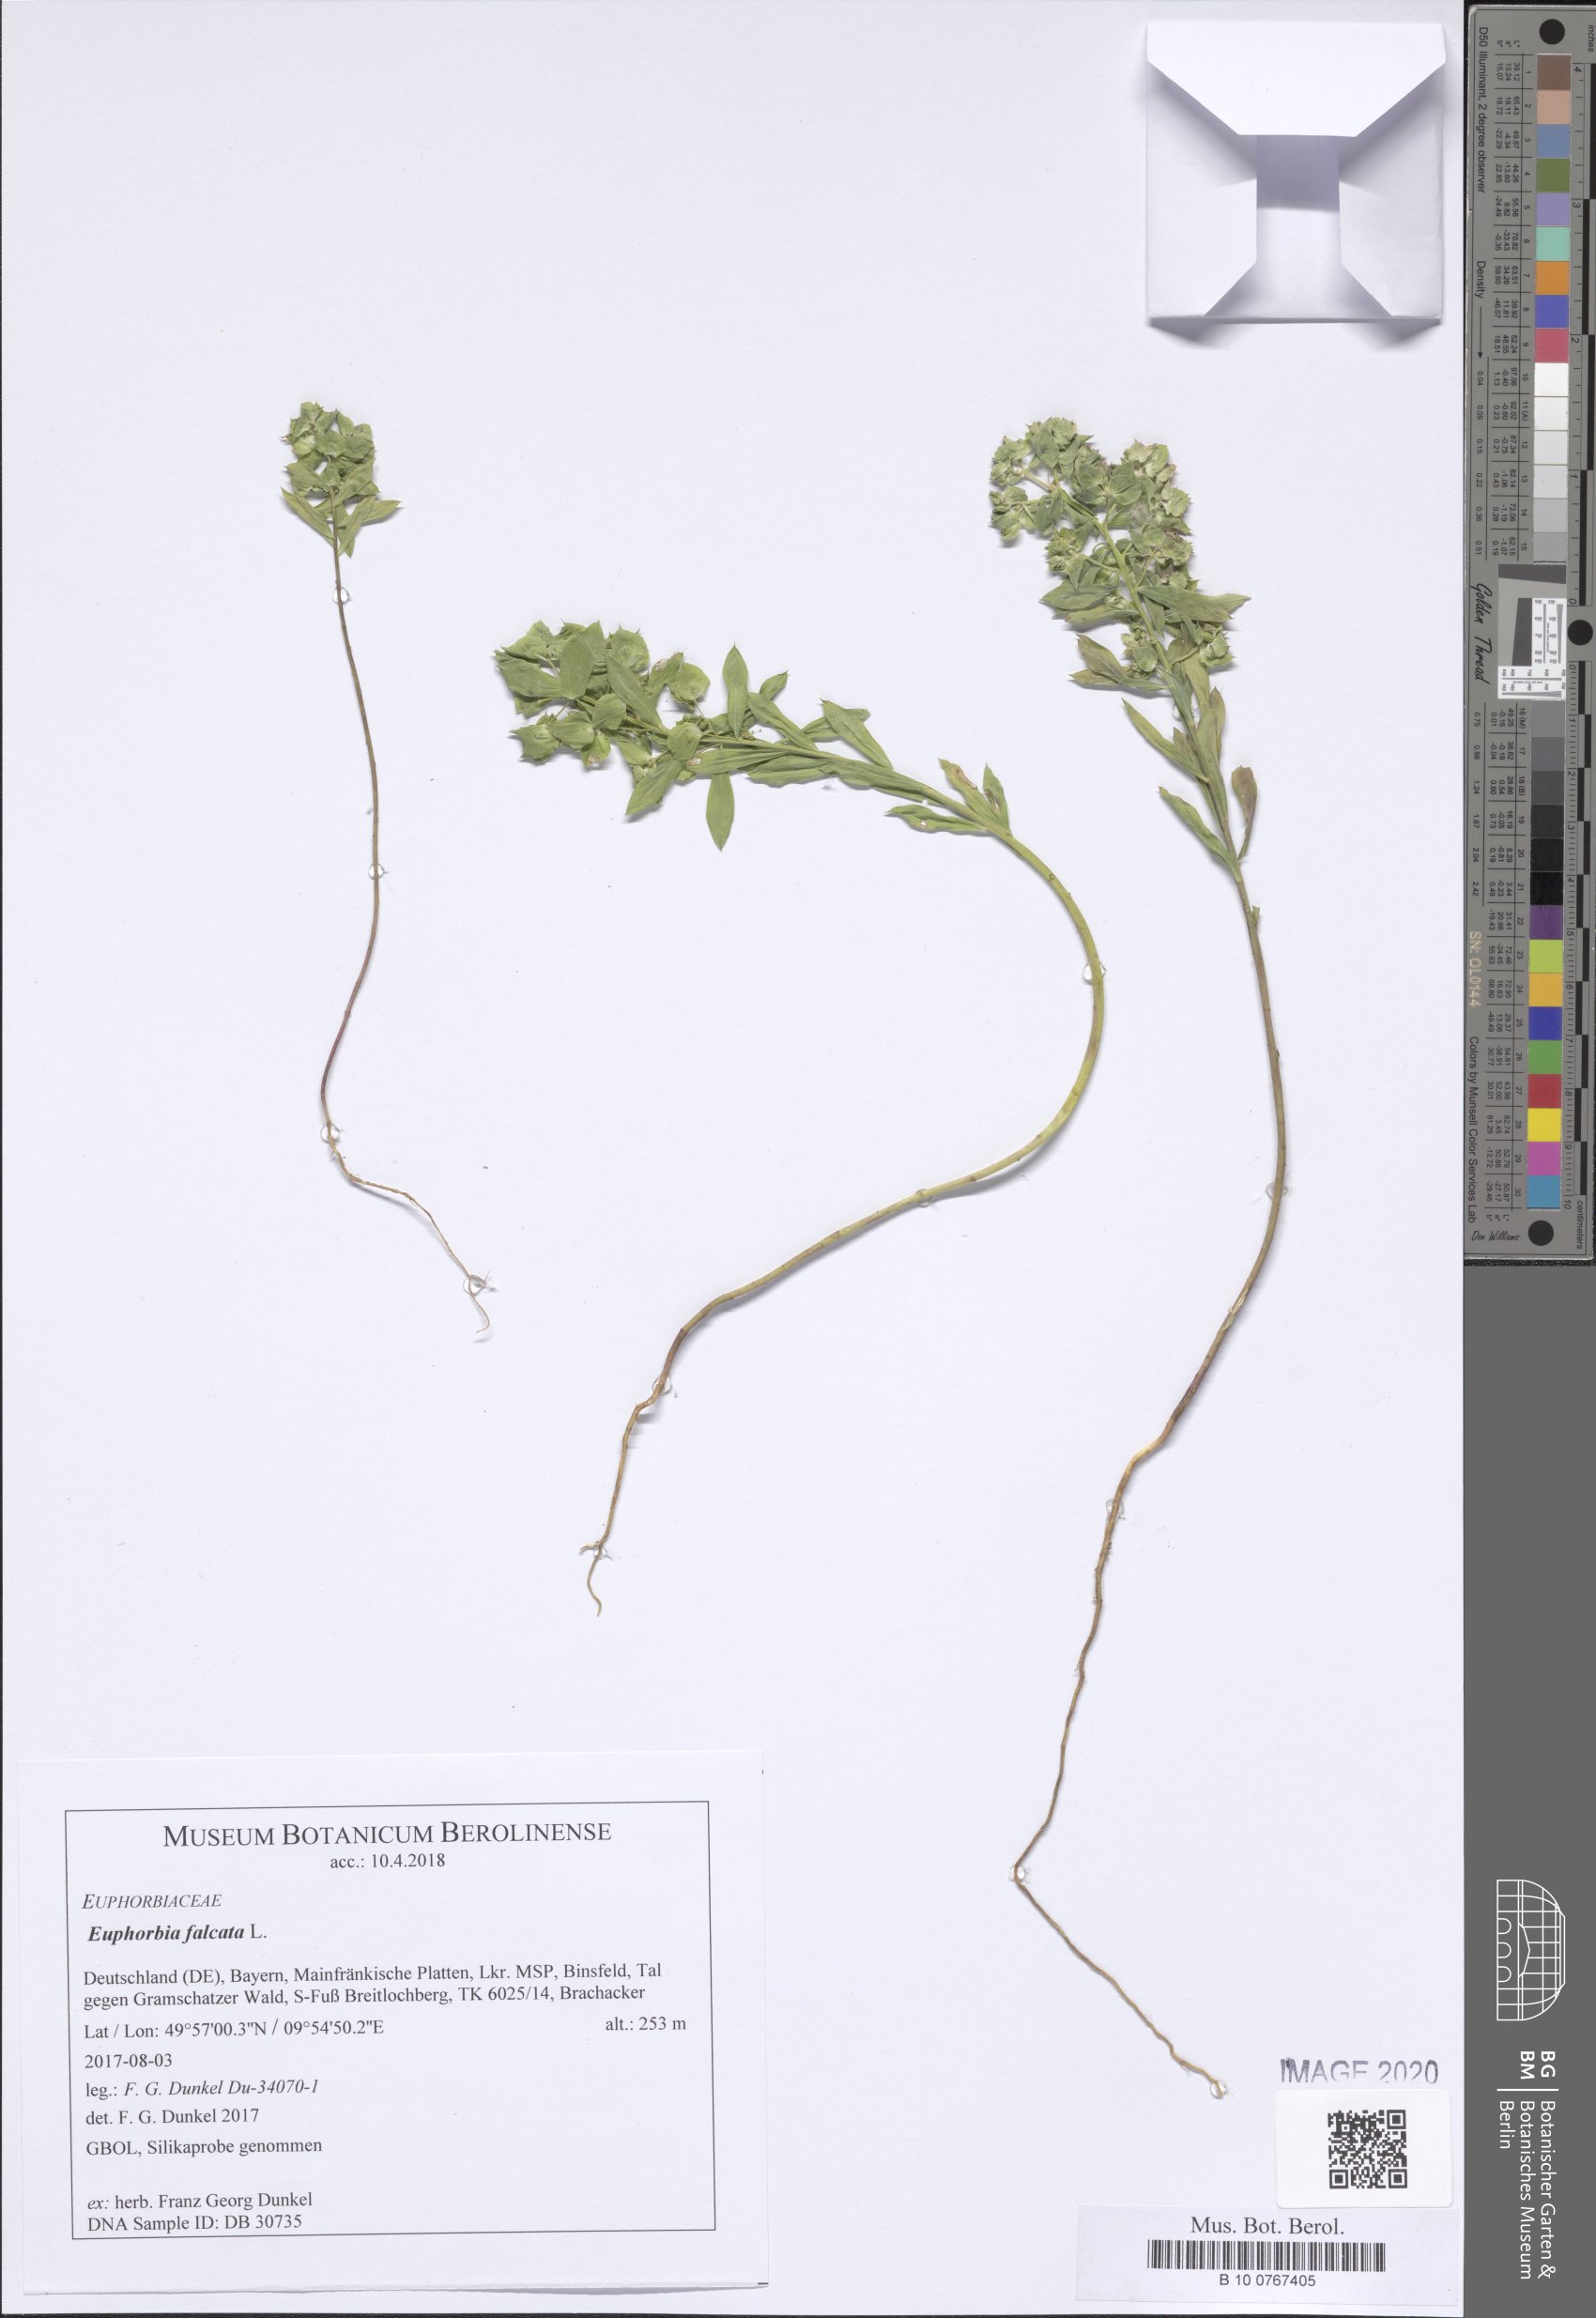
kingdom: Plantae
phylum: Tracheophyta
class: Magnoliopsida
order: Malpighiales
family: Euphorbiaceae
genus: Euphorbia
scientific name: Euphorbia falcata
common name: Sickle spurge
